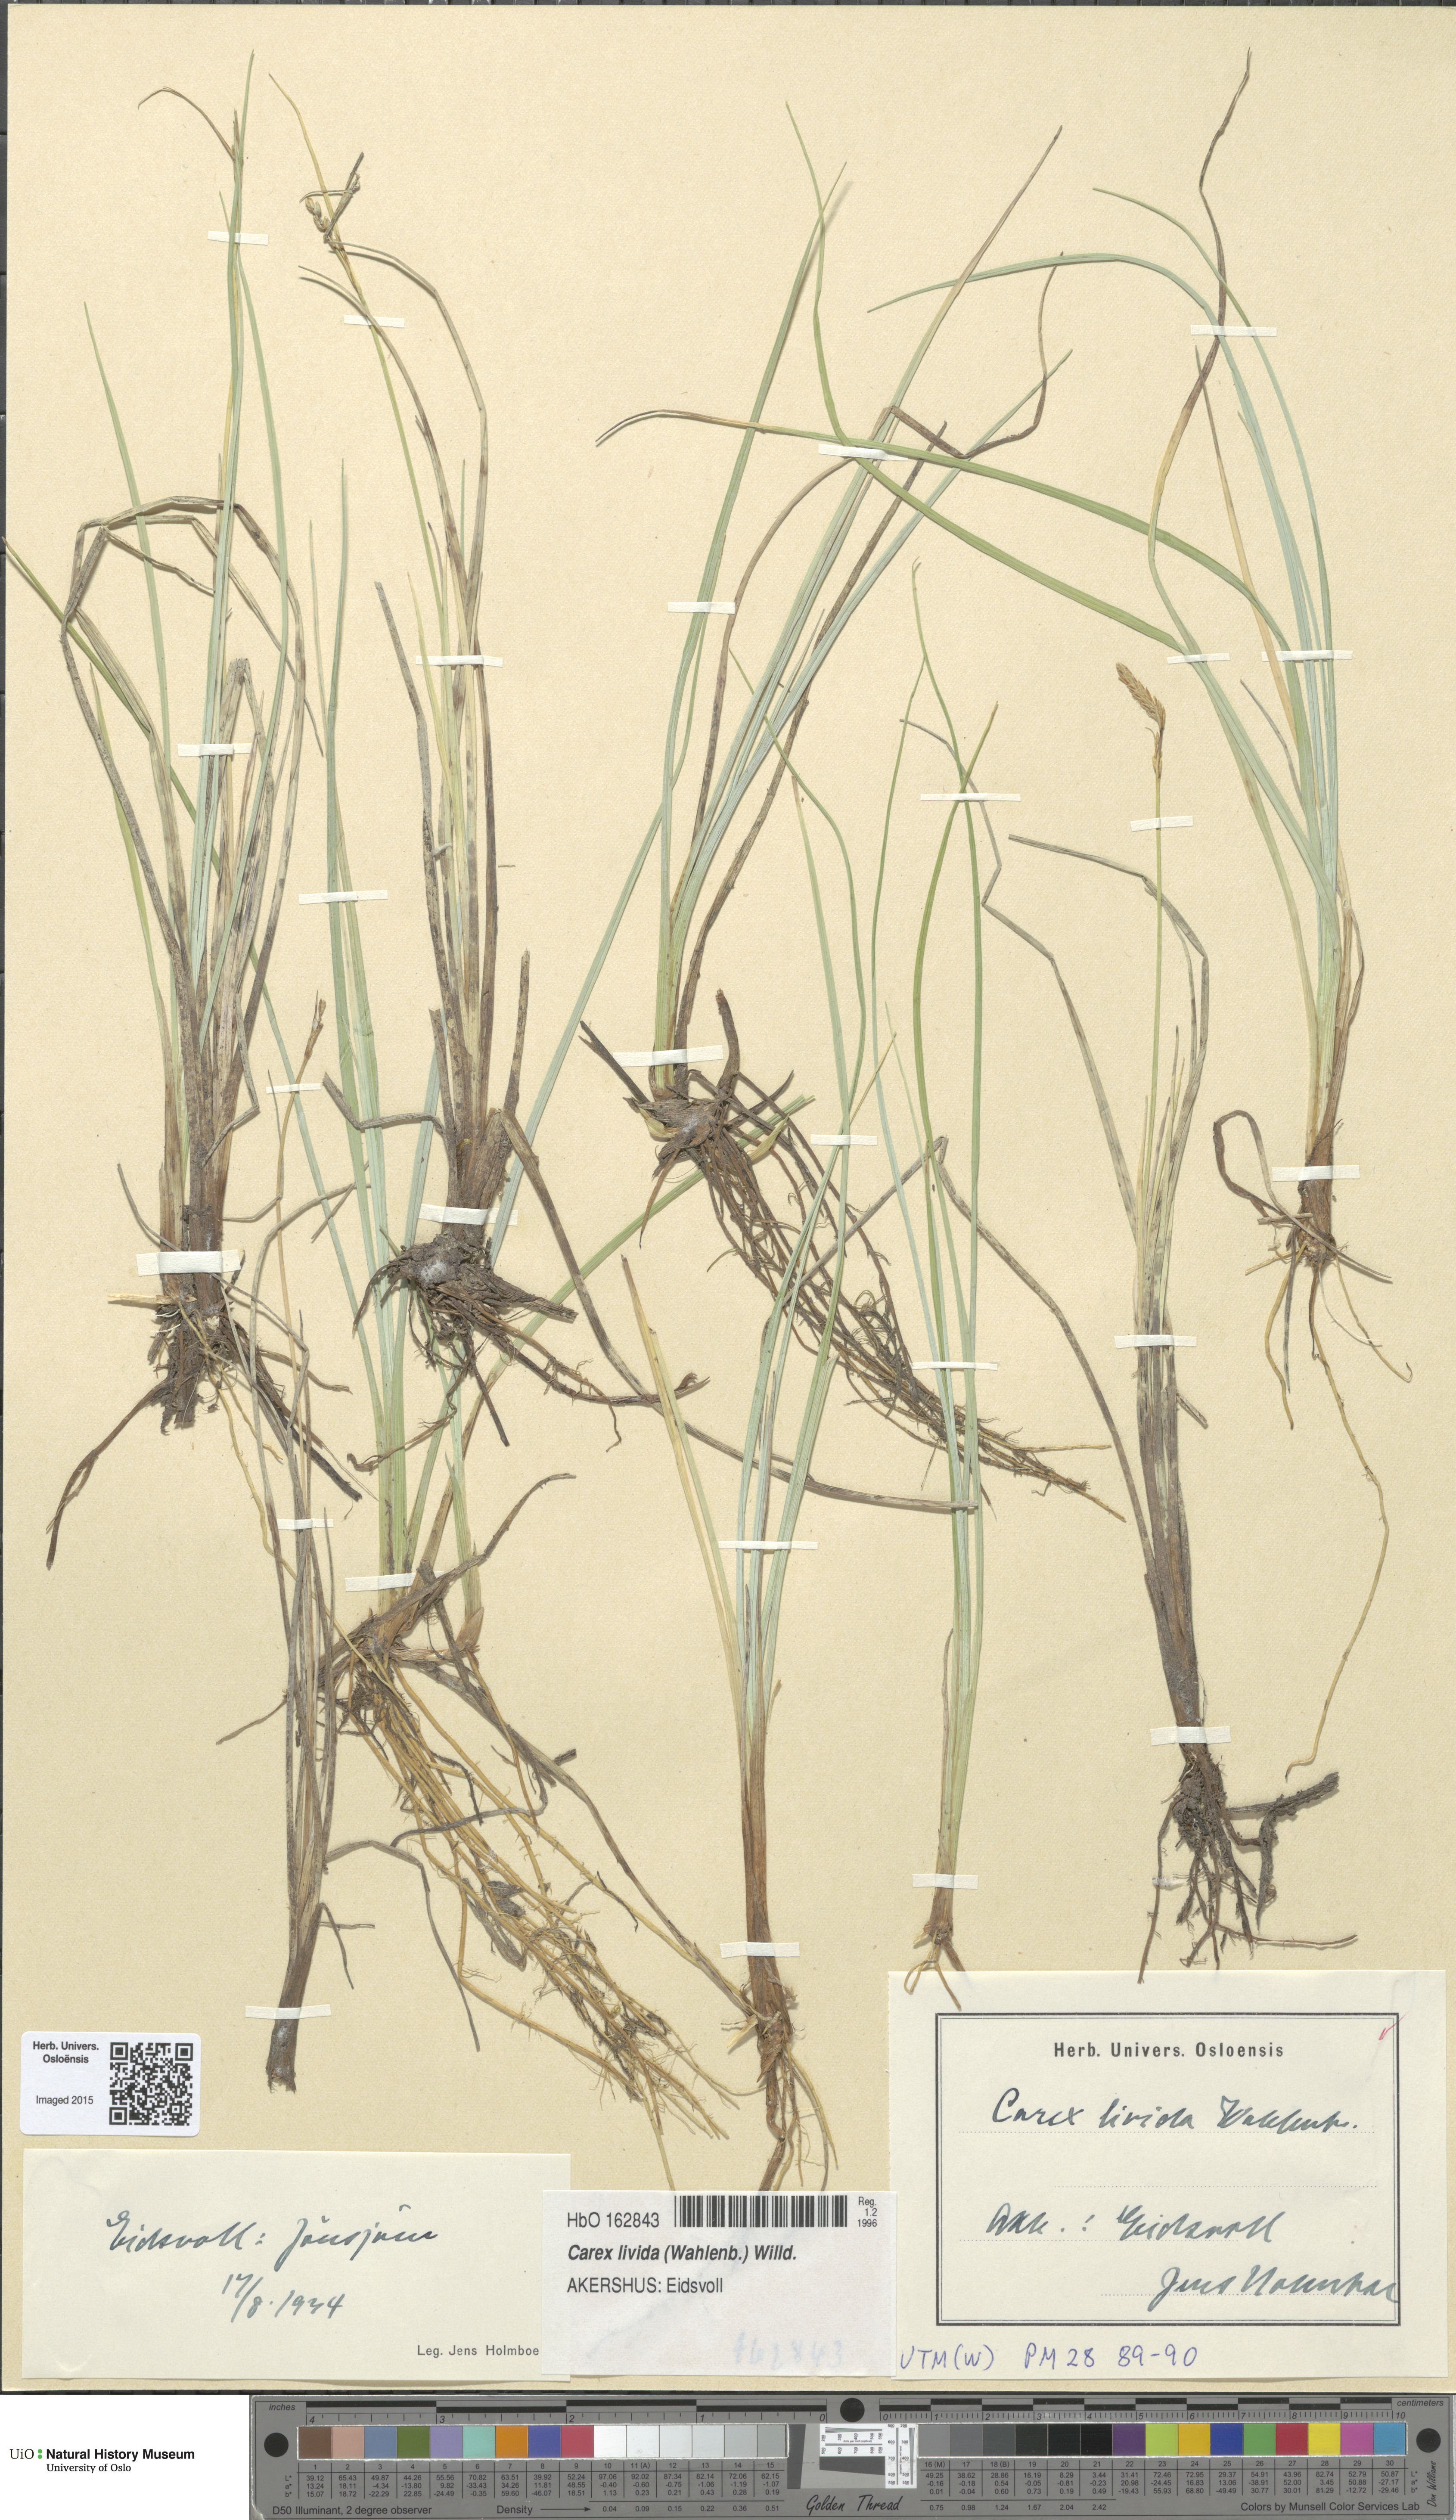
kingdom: Plantae
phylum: Tracheophyta
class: Liliopsida
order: Poales
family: Cyperaceae
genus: Carex
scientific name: Carex livida
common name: Livid sedge
